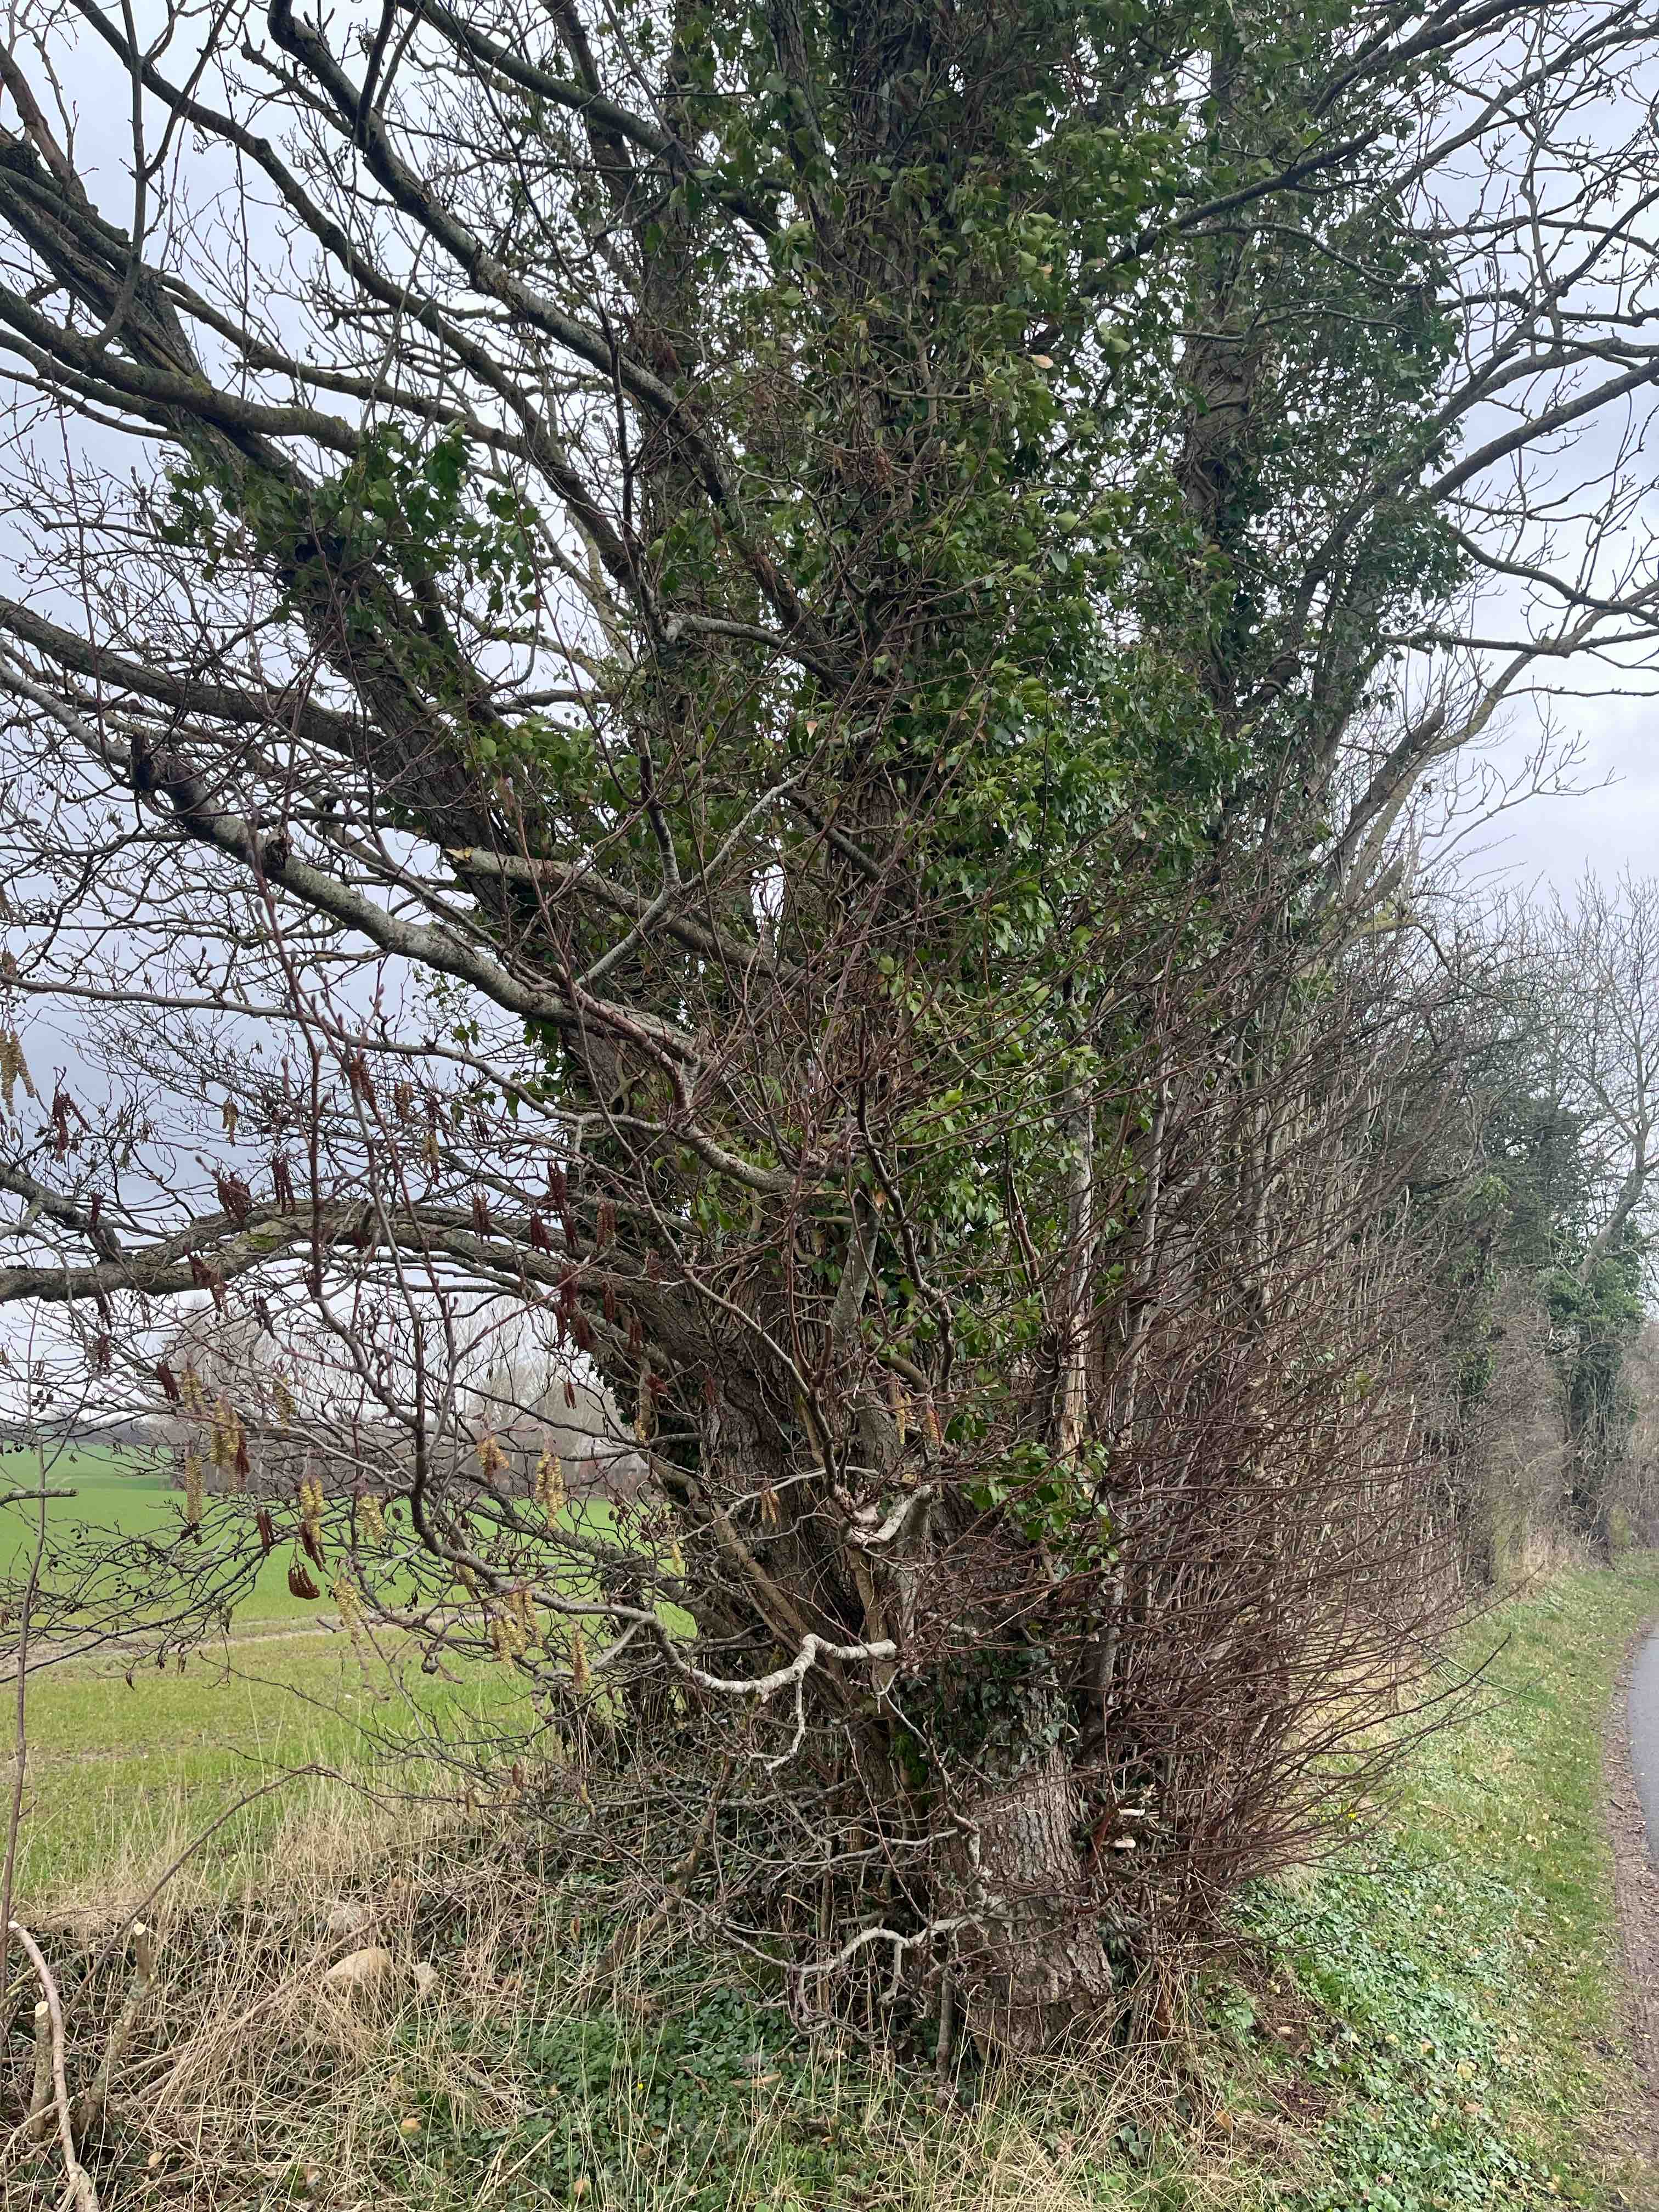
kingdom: Fungi
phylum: Basidiomycota
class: Agaricomycetes
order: Geastrales
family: Geastraceae
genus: Geastrum
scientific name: Geastrum fornicatum
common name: stejl stjernebold
